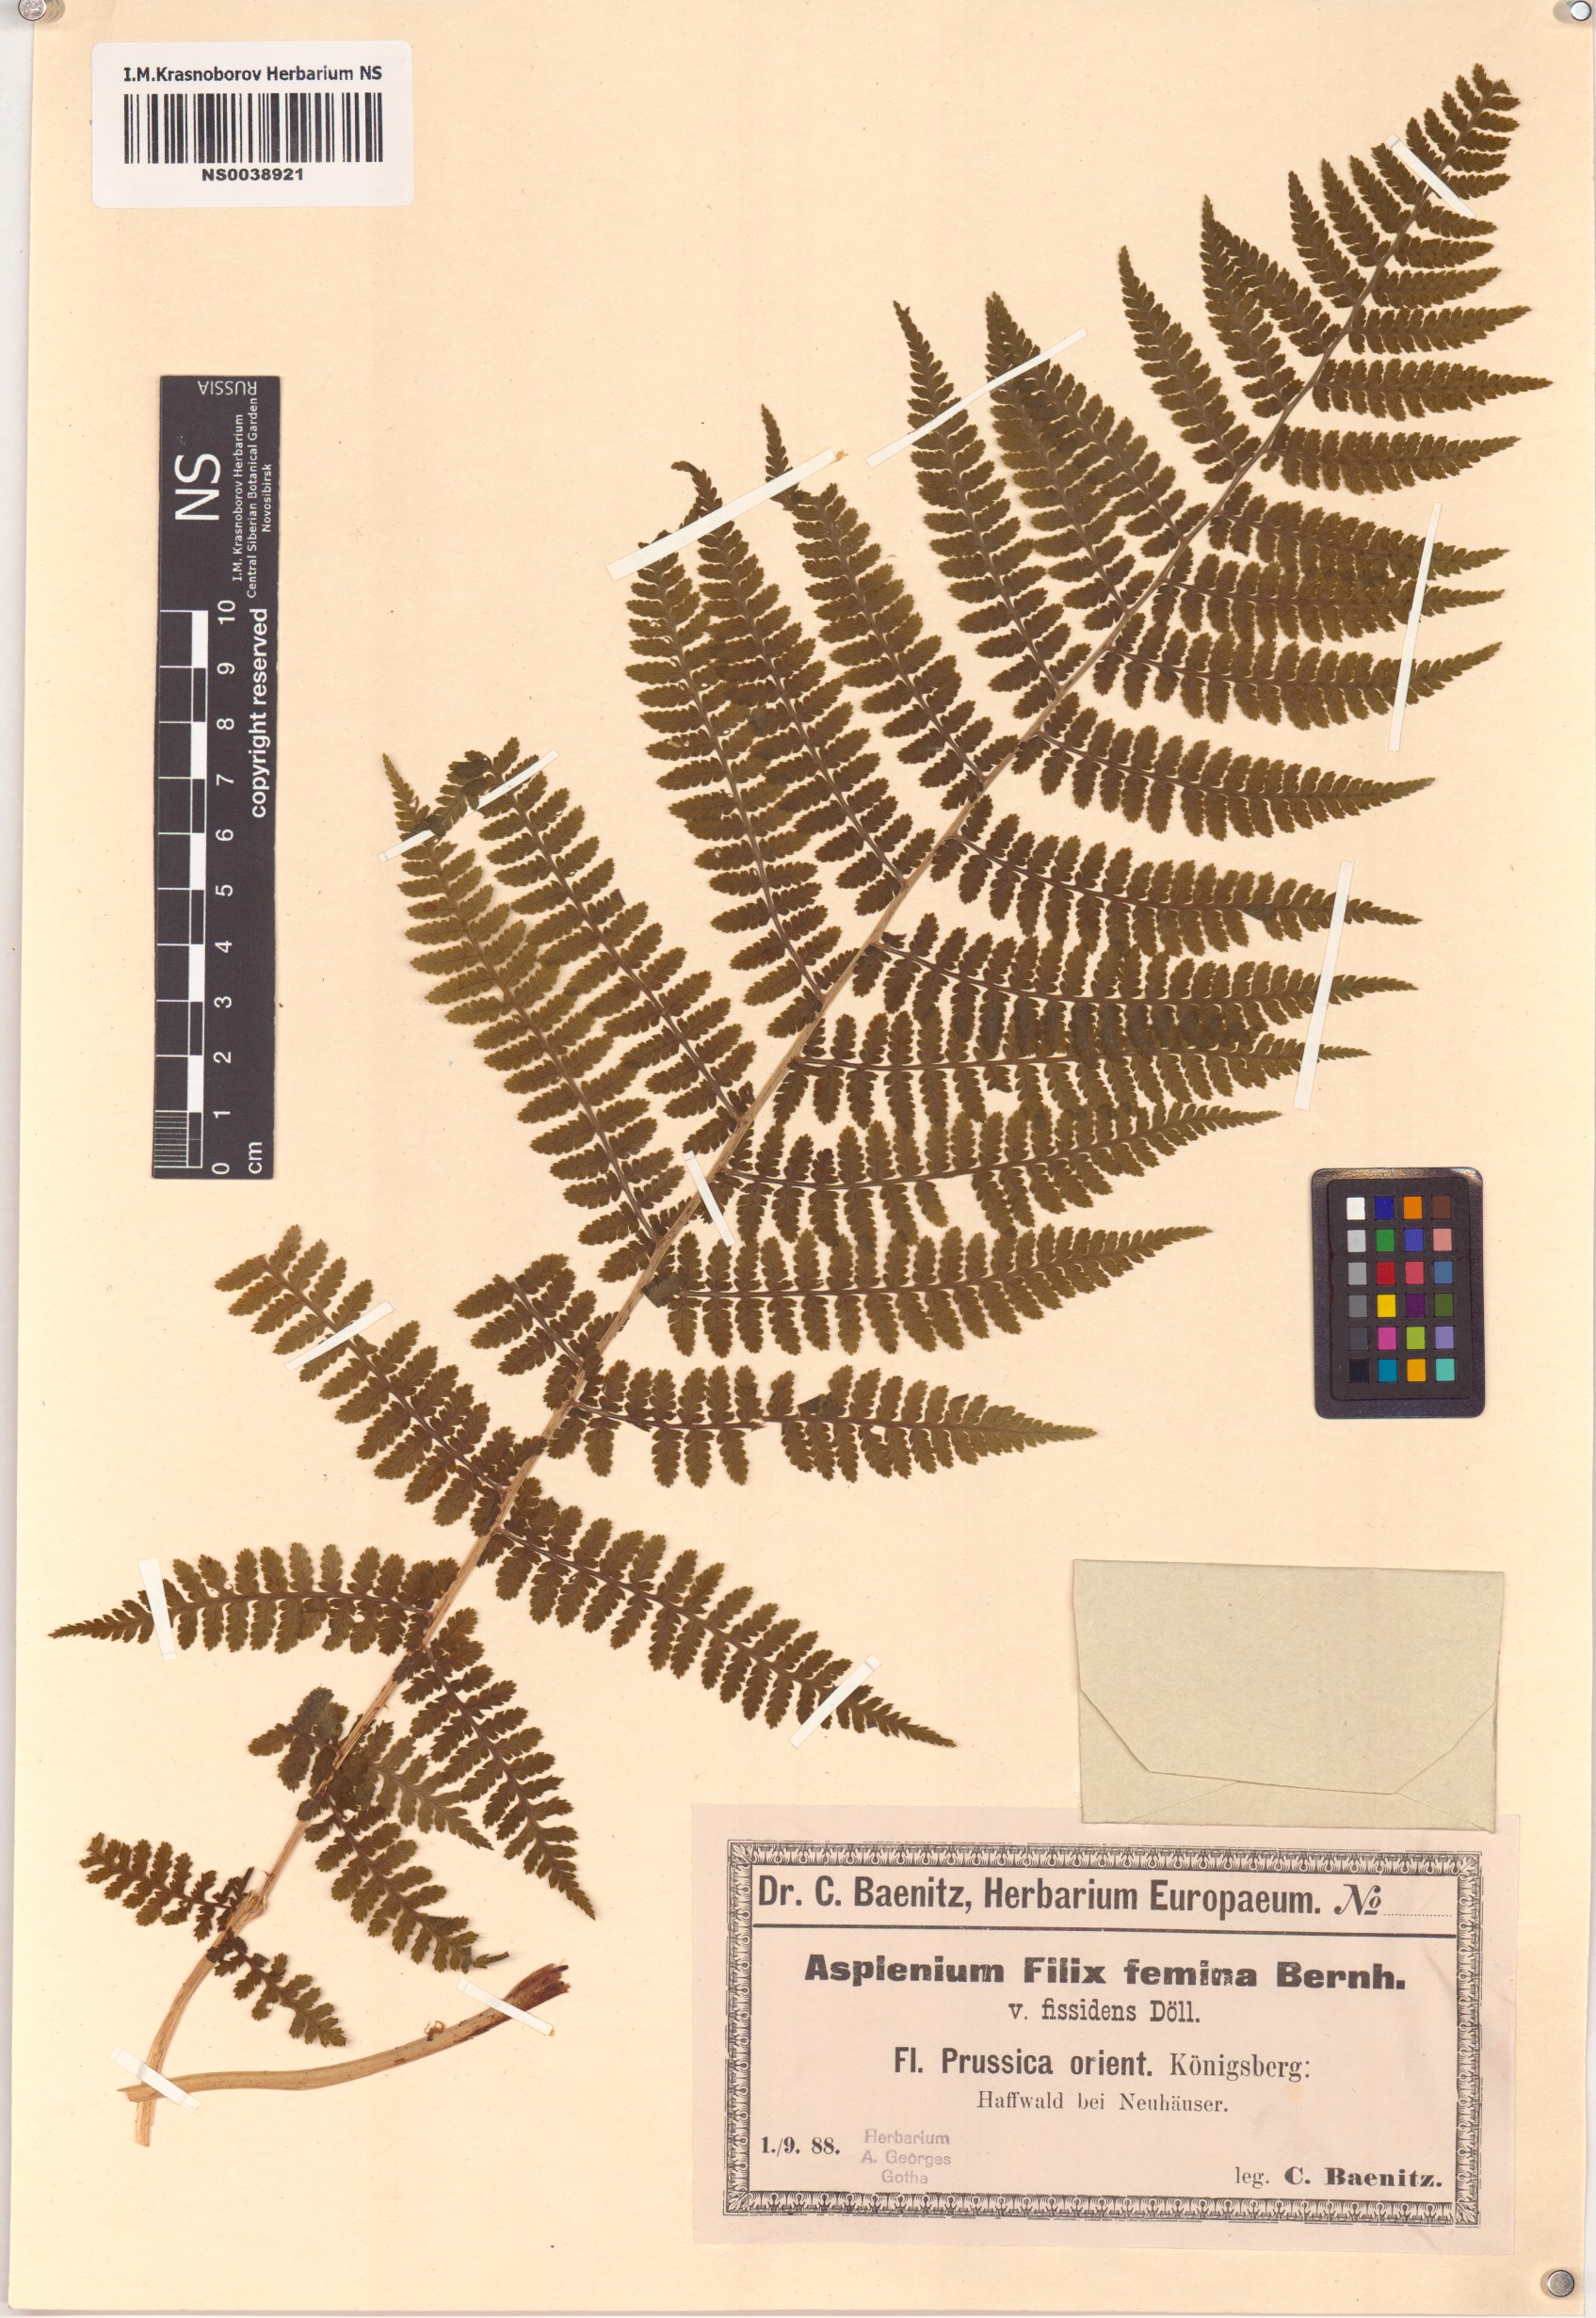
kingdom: Plantae
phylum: Tracheophyta
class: Polypodiopsida
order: Polypodiales
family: Athyriaceae
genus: Athyrium
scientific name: Athyrium filix-femina
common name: Lady fern
